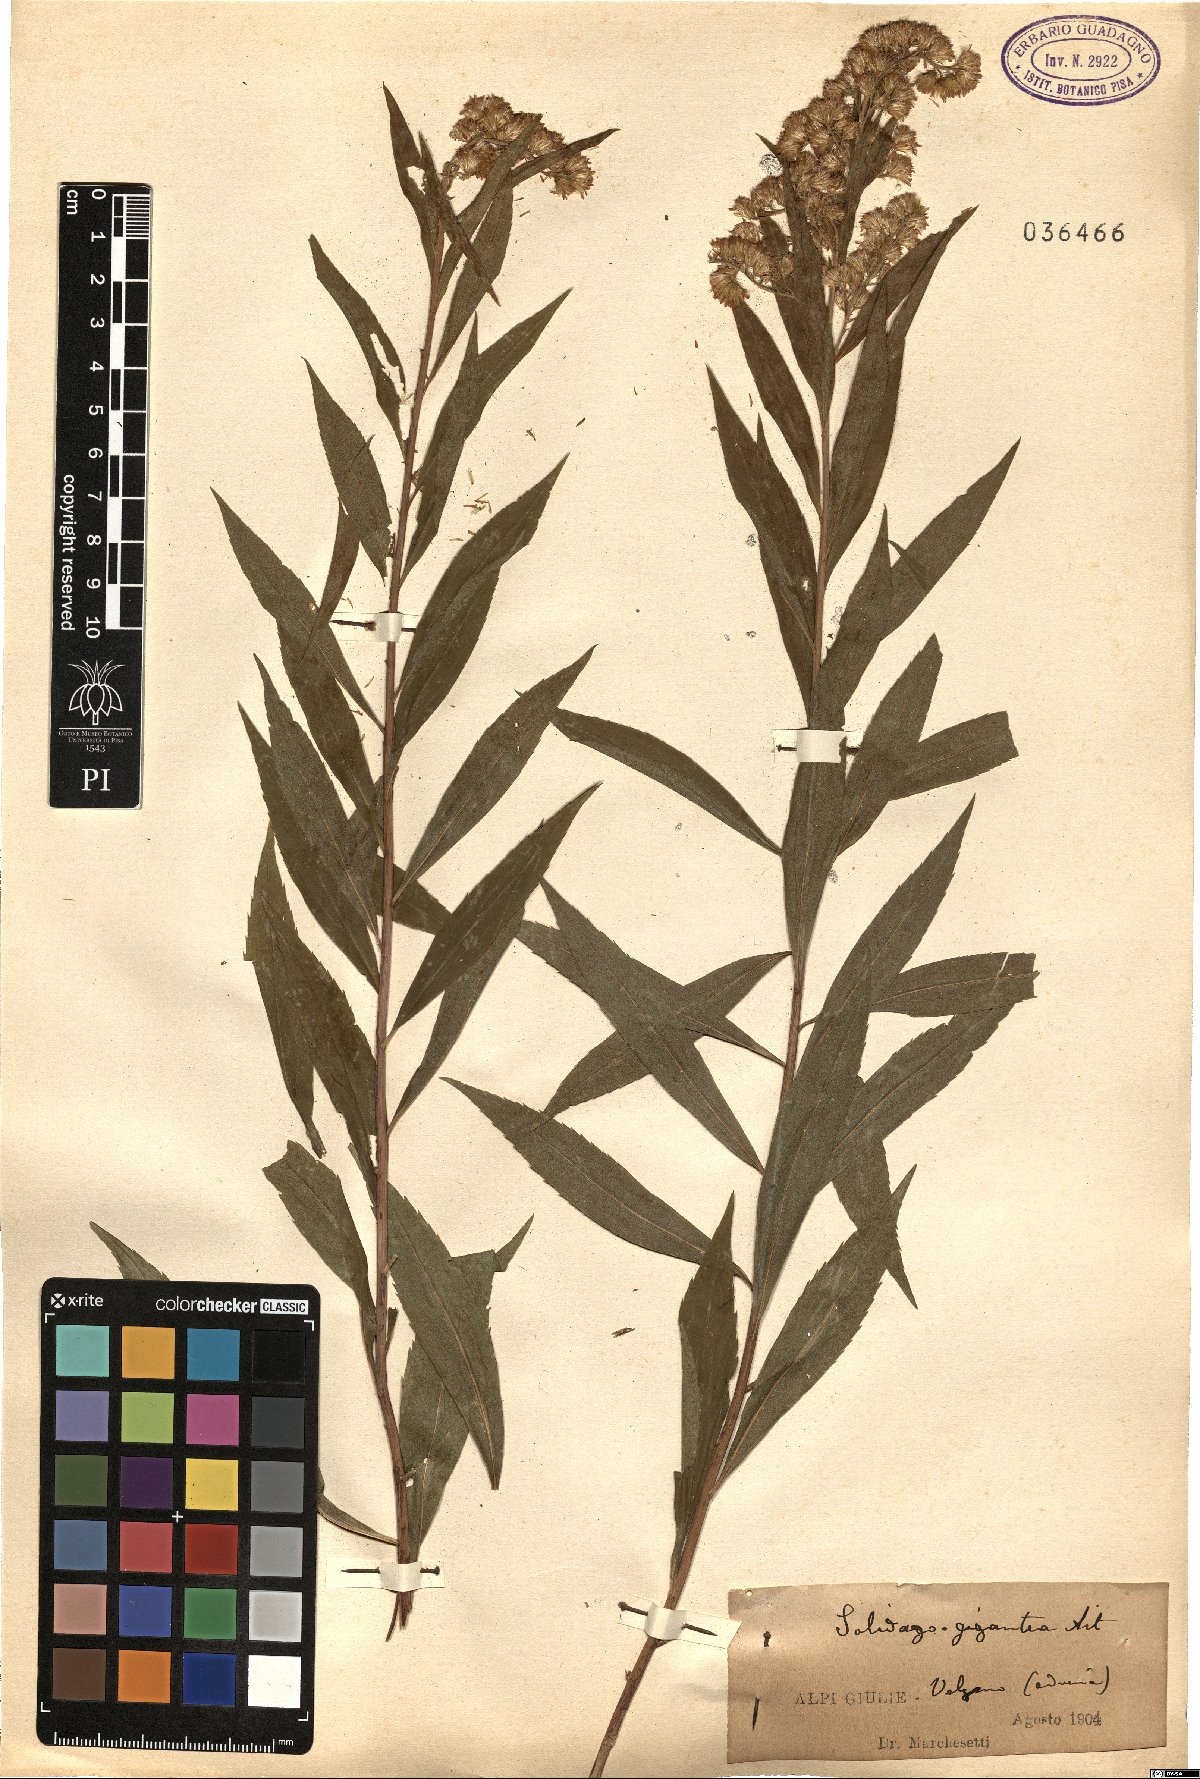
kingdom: Plantae
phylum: Tracheophyta
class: Magnoliopsida
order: Asterales
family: Asteraceae
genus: Solidago
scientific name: Solidago gigantea
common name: Giant goldenrod
